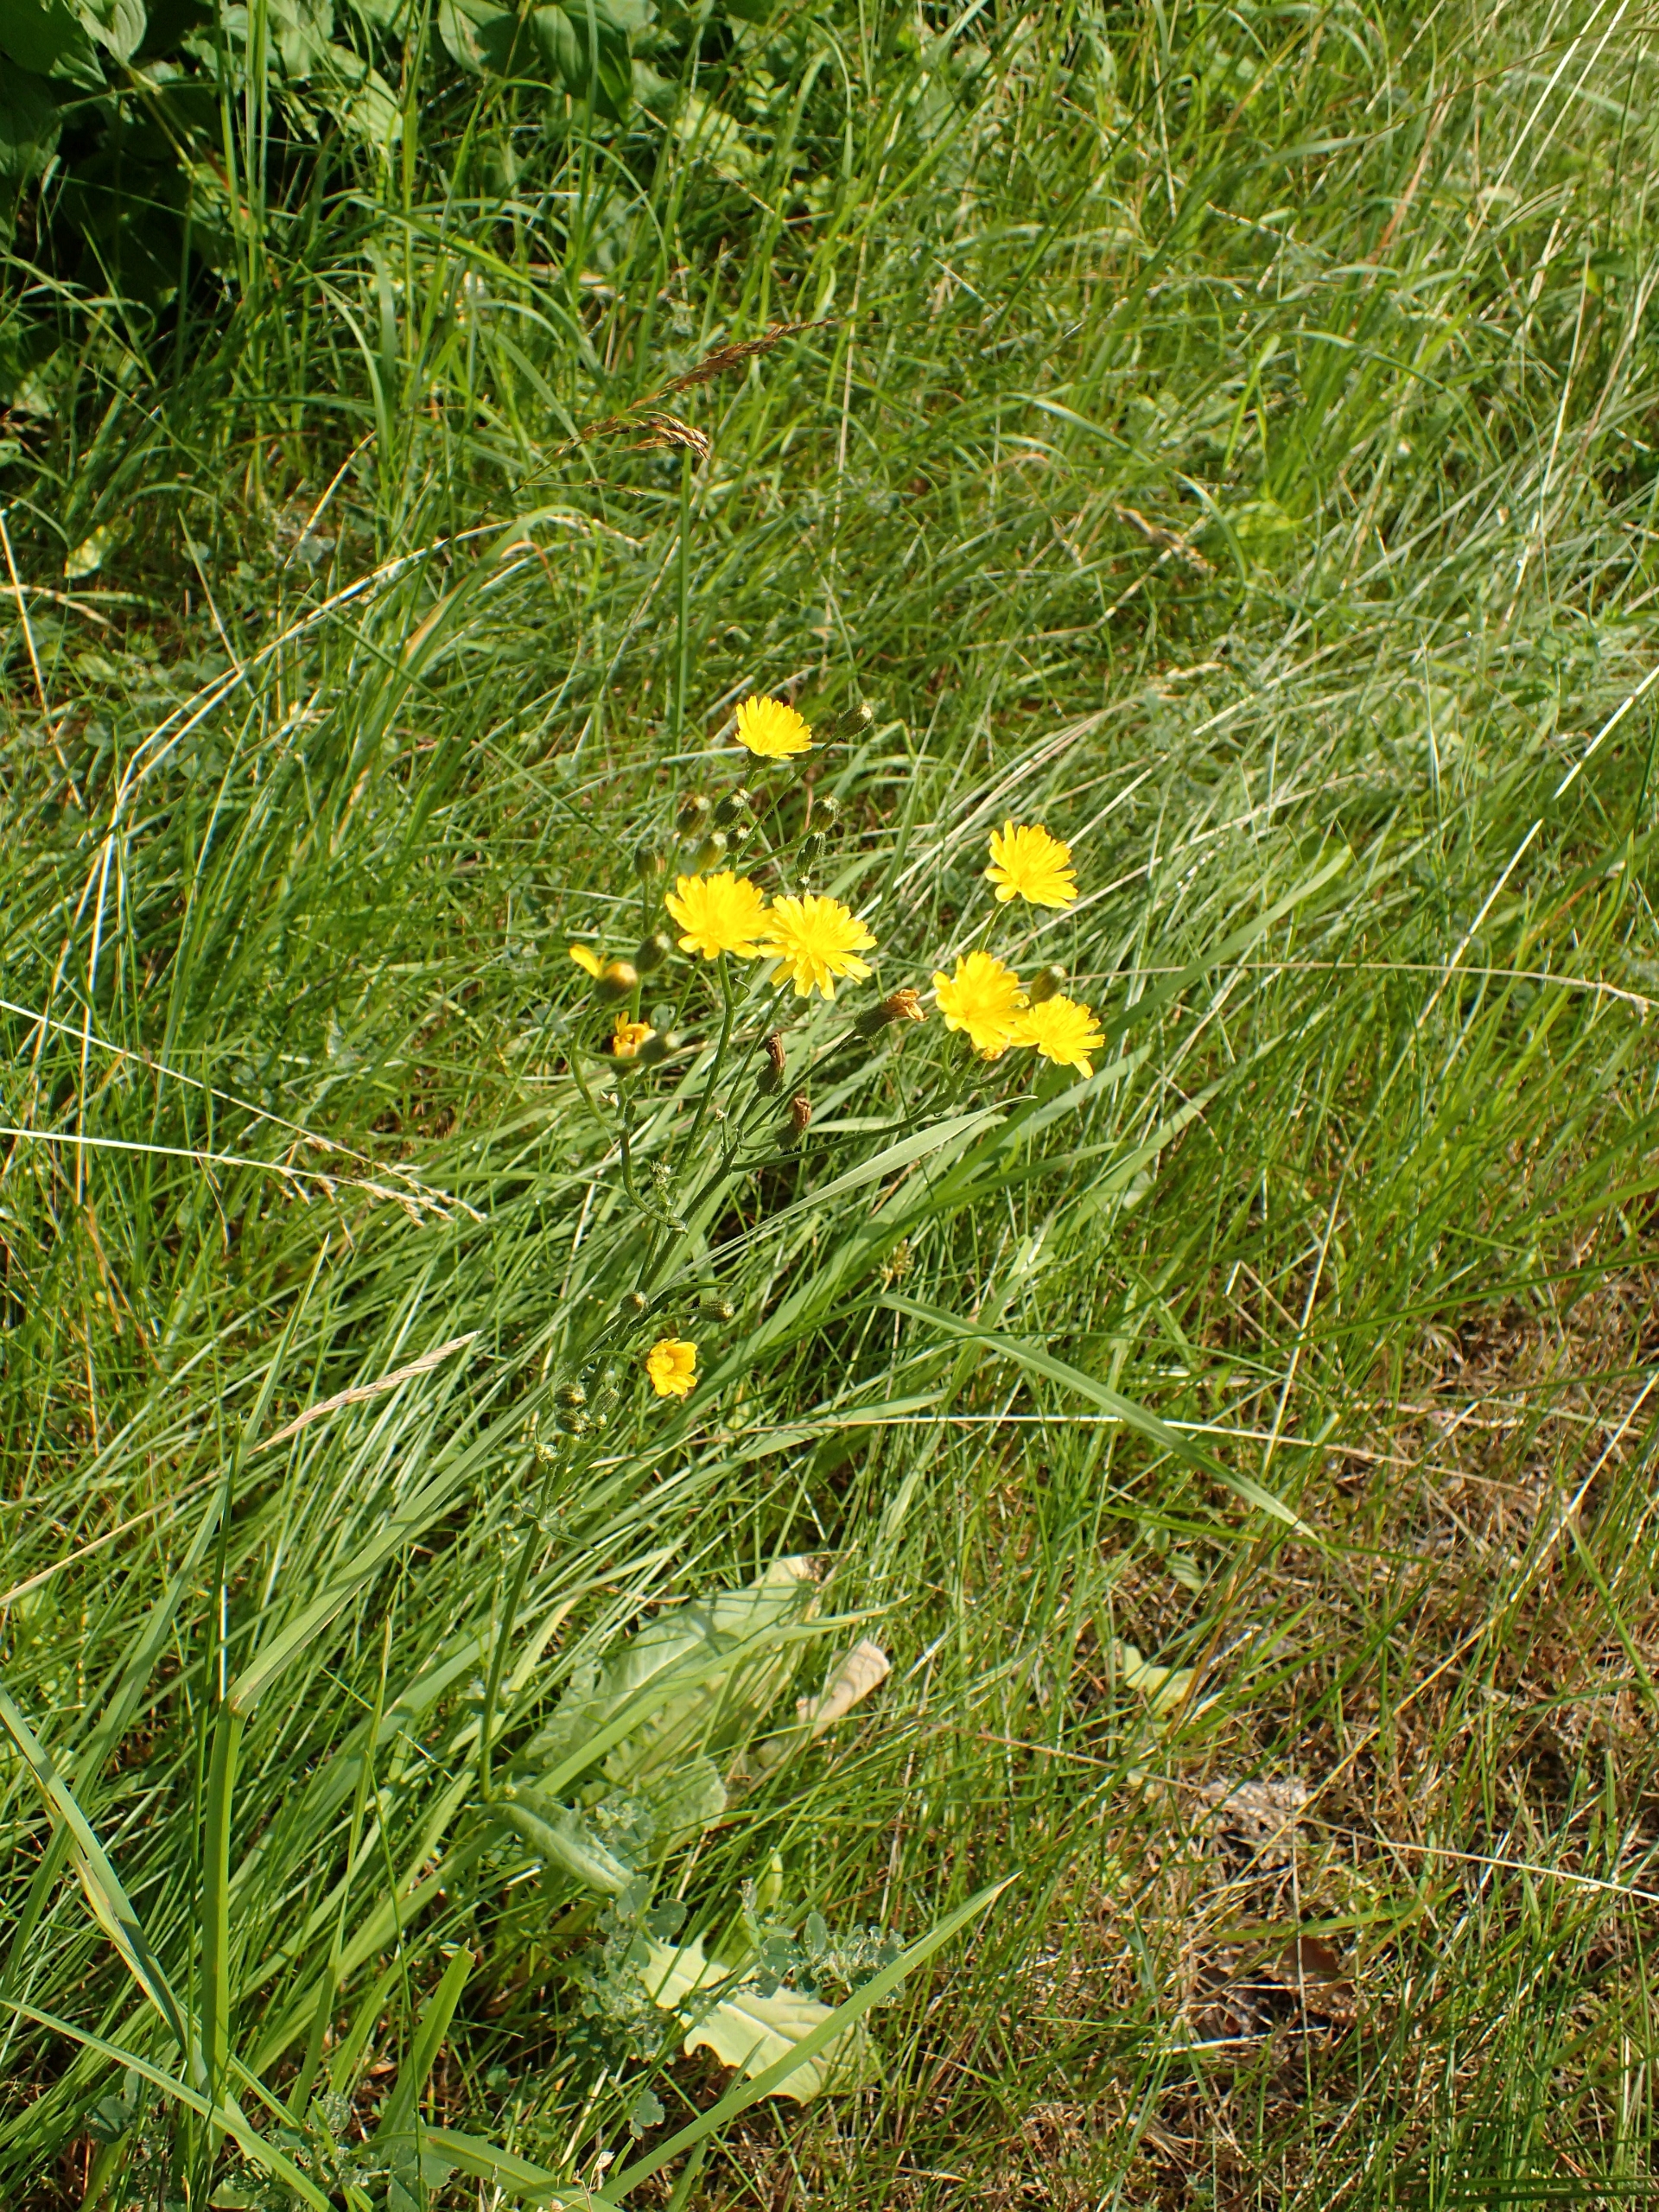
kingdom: Plantae
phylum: Tracheophyta
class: Magnoliopsida
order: Asterales
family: Asteraceae
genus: Crepis
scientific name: Crepis capillaris
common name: Grøn høgeskæg
